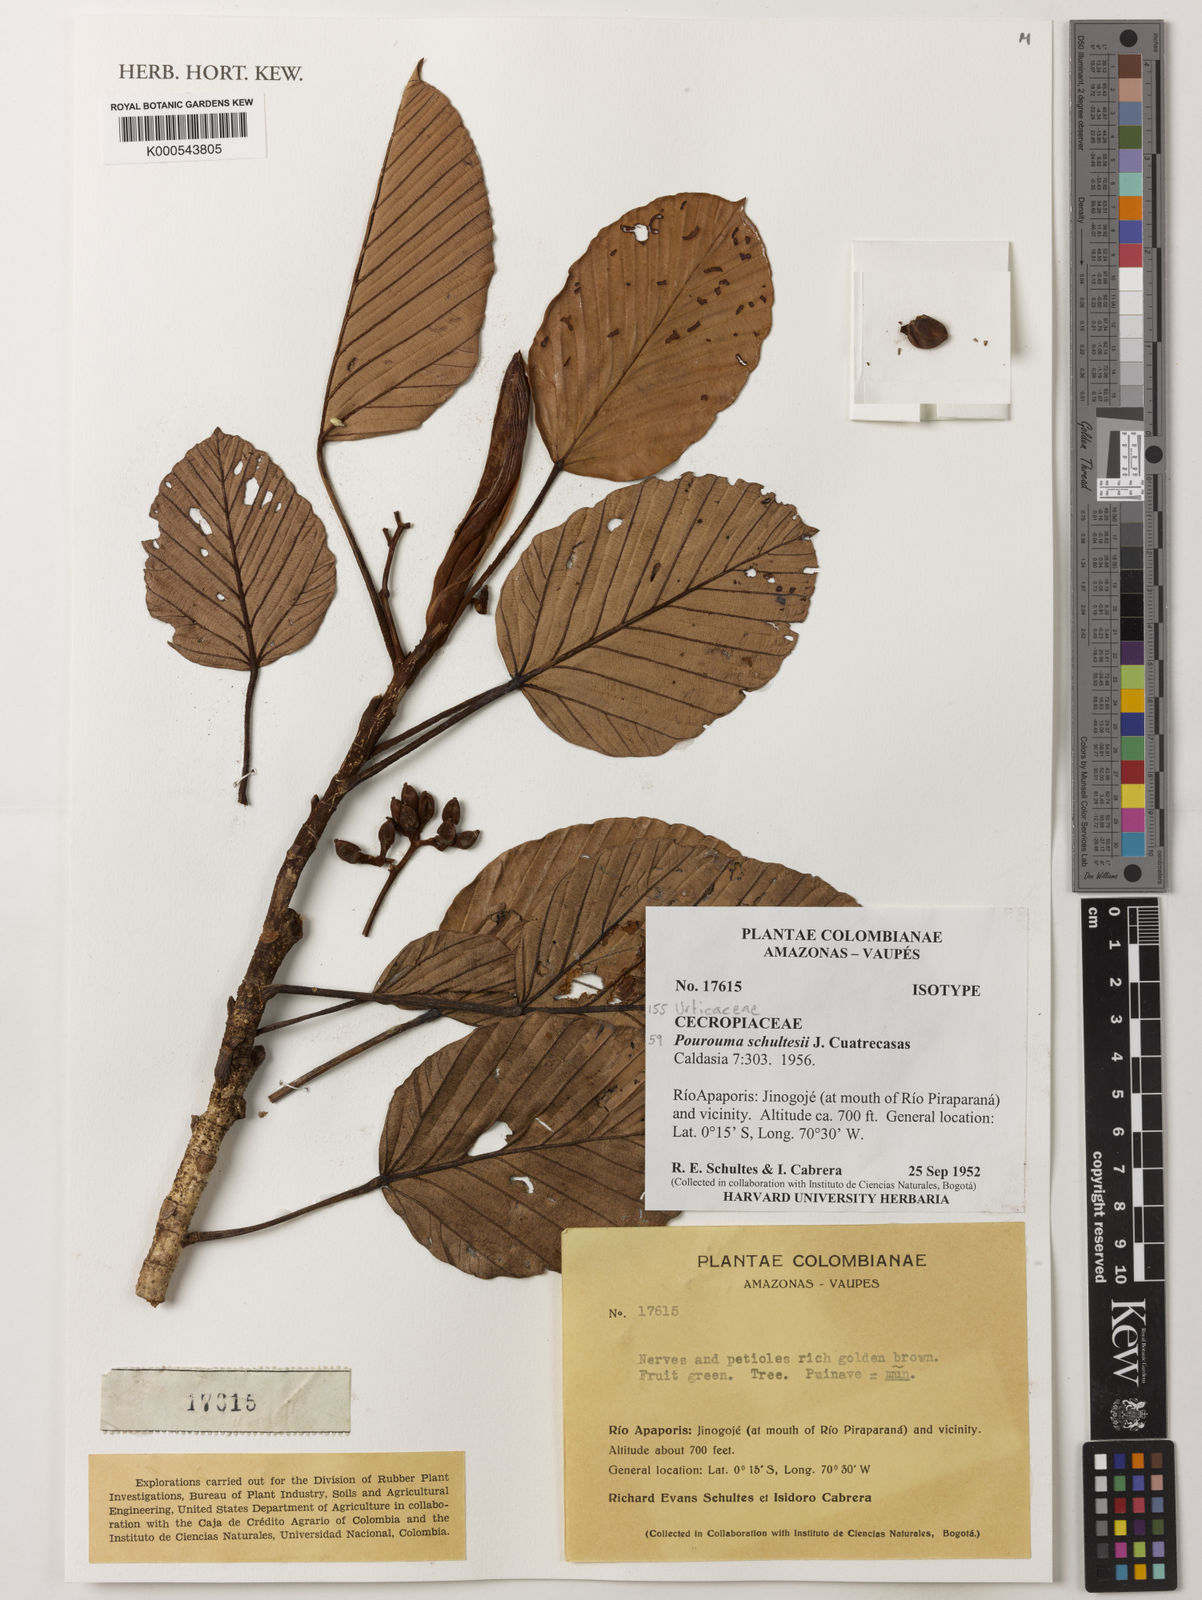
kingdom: Plantae
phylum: Tracheophyta
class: Magnoliopsida
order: Rosales
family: Urticaceae
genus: Pourouma
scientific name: Pourouma bicolor
